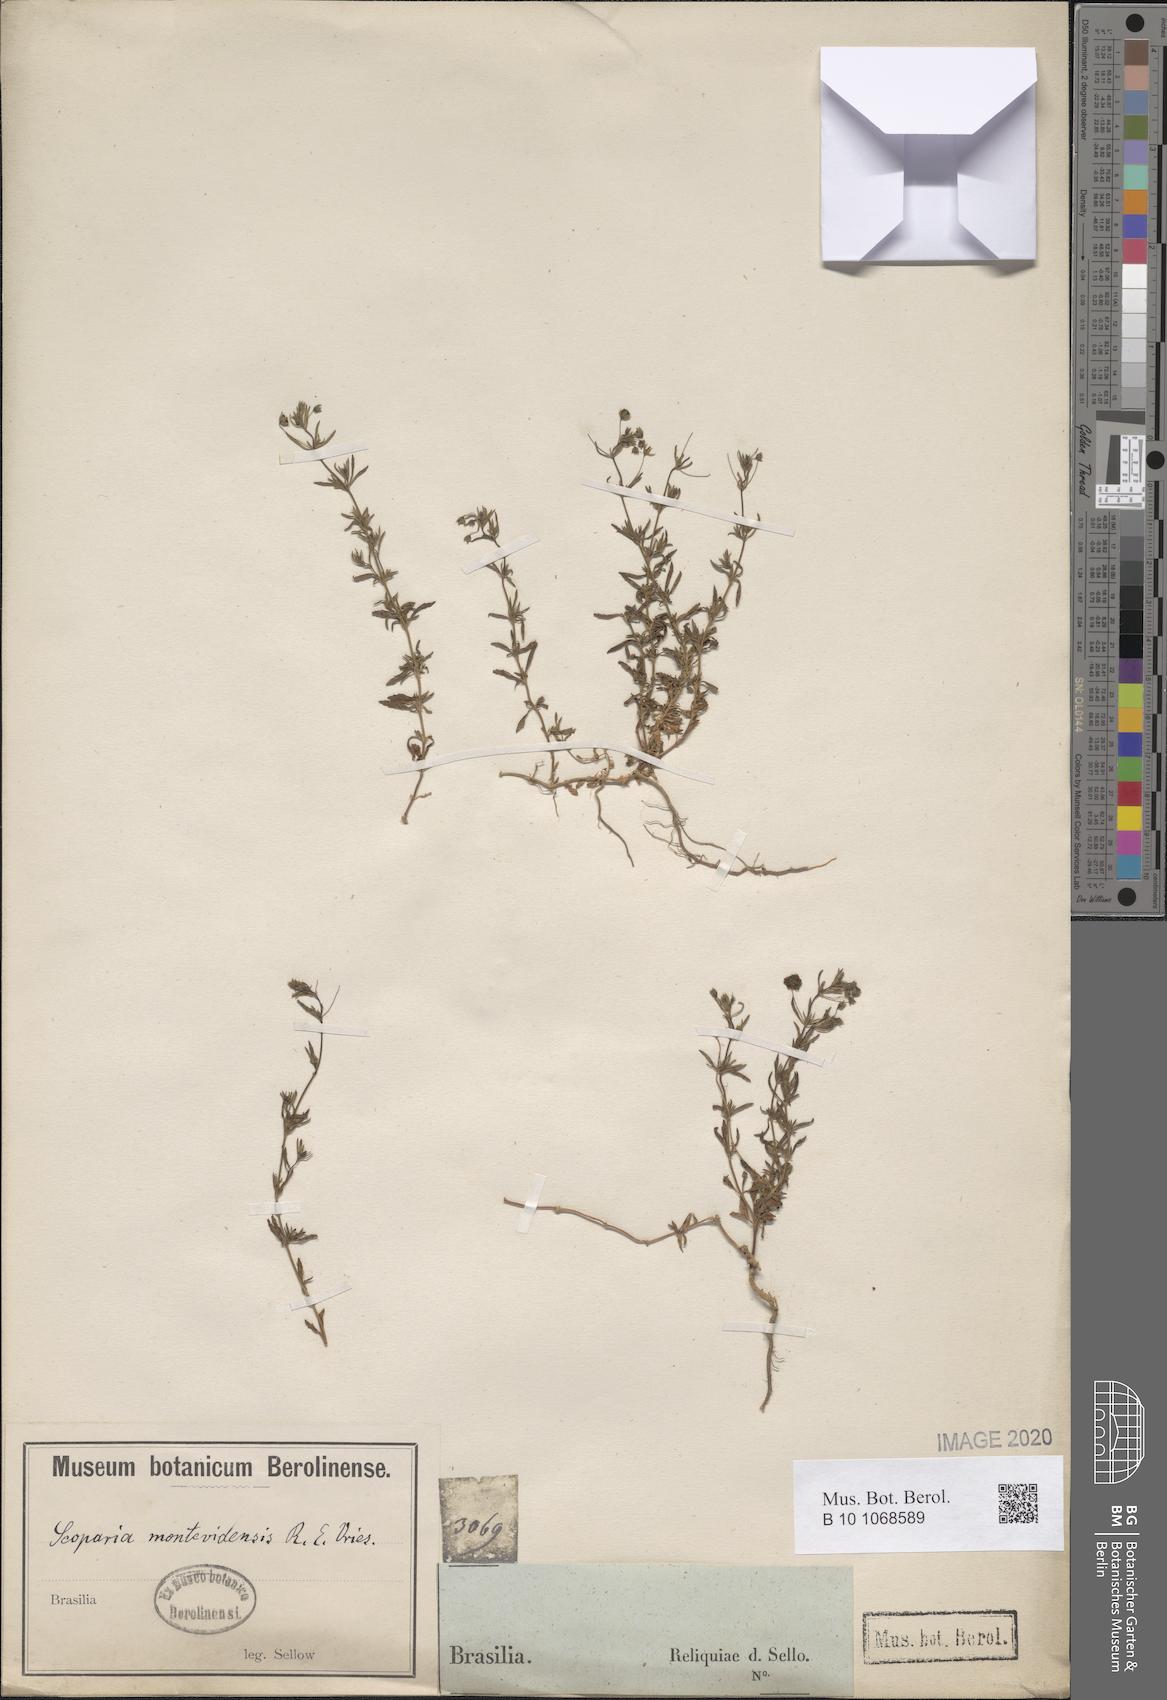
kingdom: Plantae
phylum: Tracheophyta
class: Magnoliopsida
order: Lamiales
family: Plantaginaceae
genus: Scoparia
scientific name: Scoparia montevidensis
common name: Broomwort
